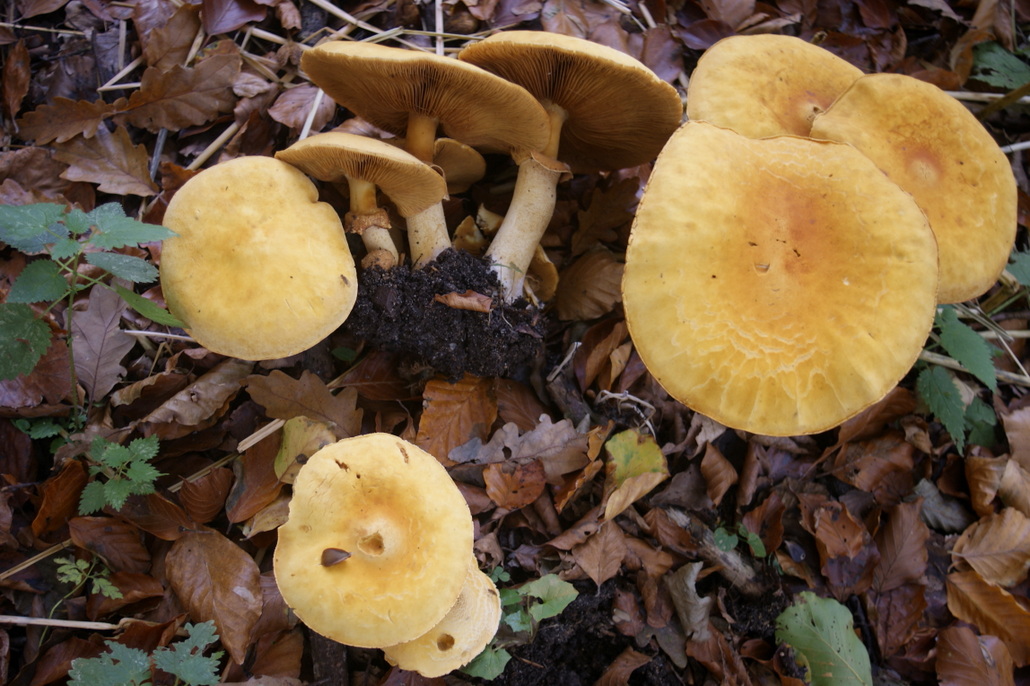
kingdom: Fungi
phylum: Basidiomycota
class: Agaricomycetes
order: Agaricales
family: Tricholomataceae
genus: Phaeolepiota
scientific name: Phaeolepiota aurea
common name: gyldenhat
